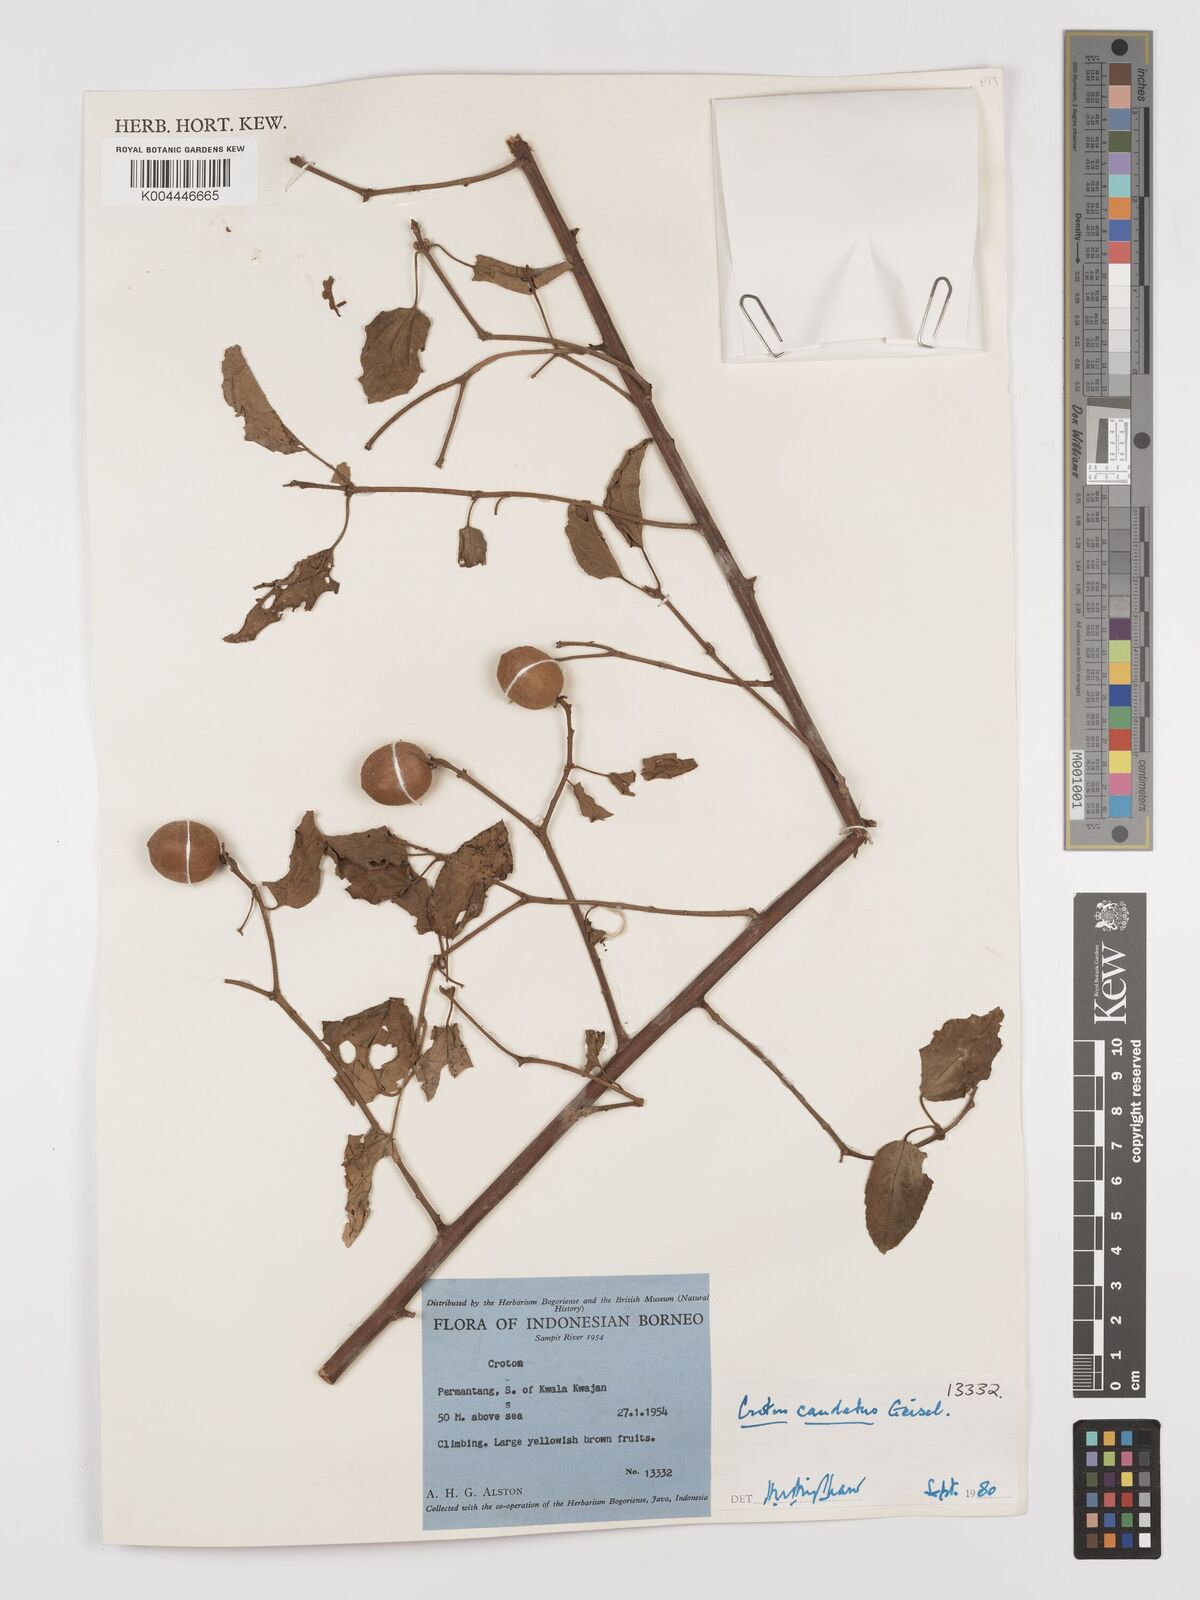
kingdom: Plantae
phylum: Tracheophyta
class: Magnoliopsida
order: Malpighiales
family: Euphorbiaceae
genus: Croton
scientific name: Croton caudatus
